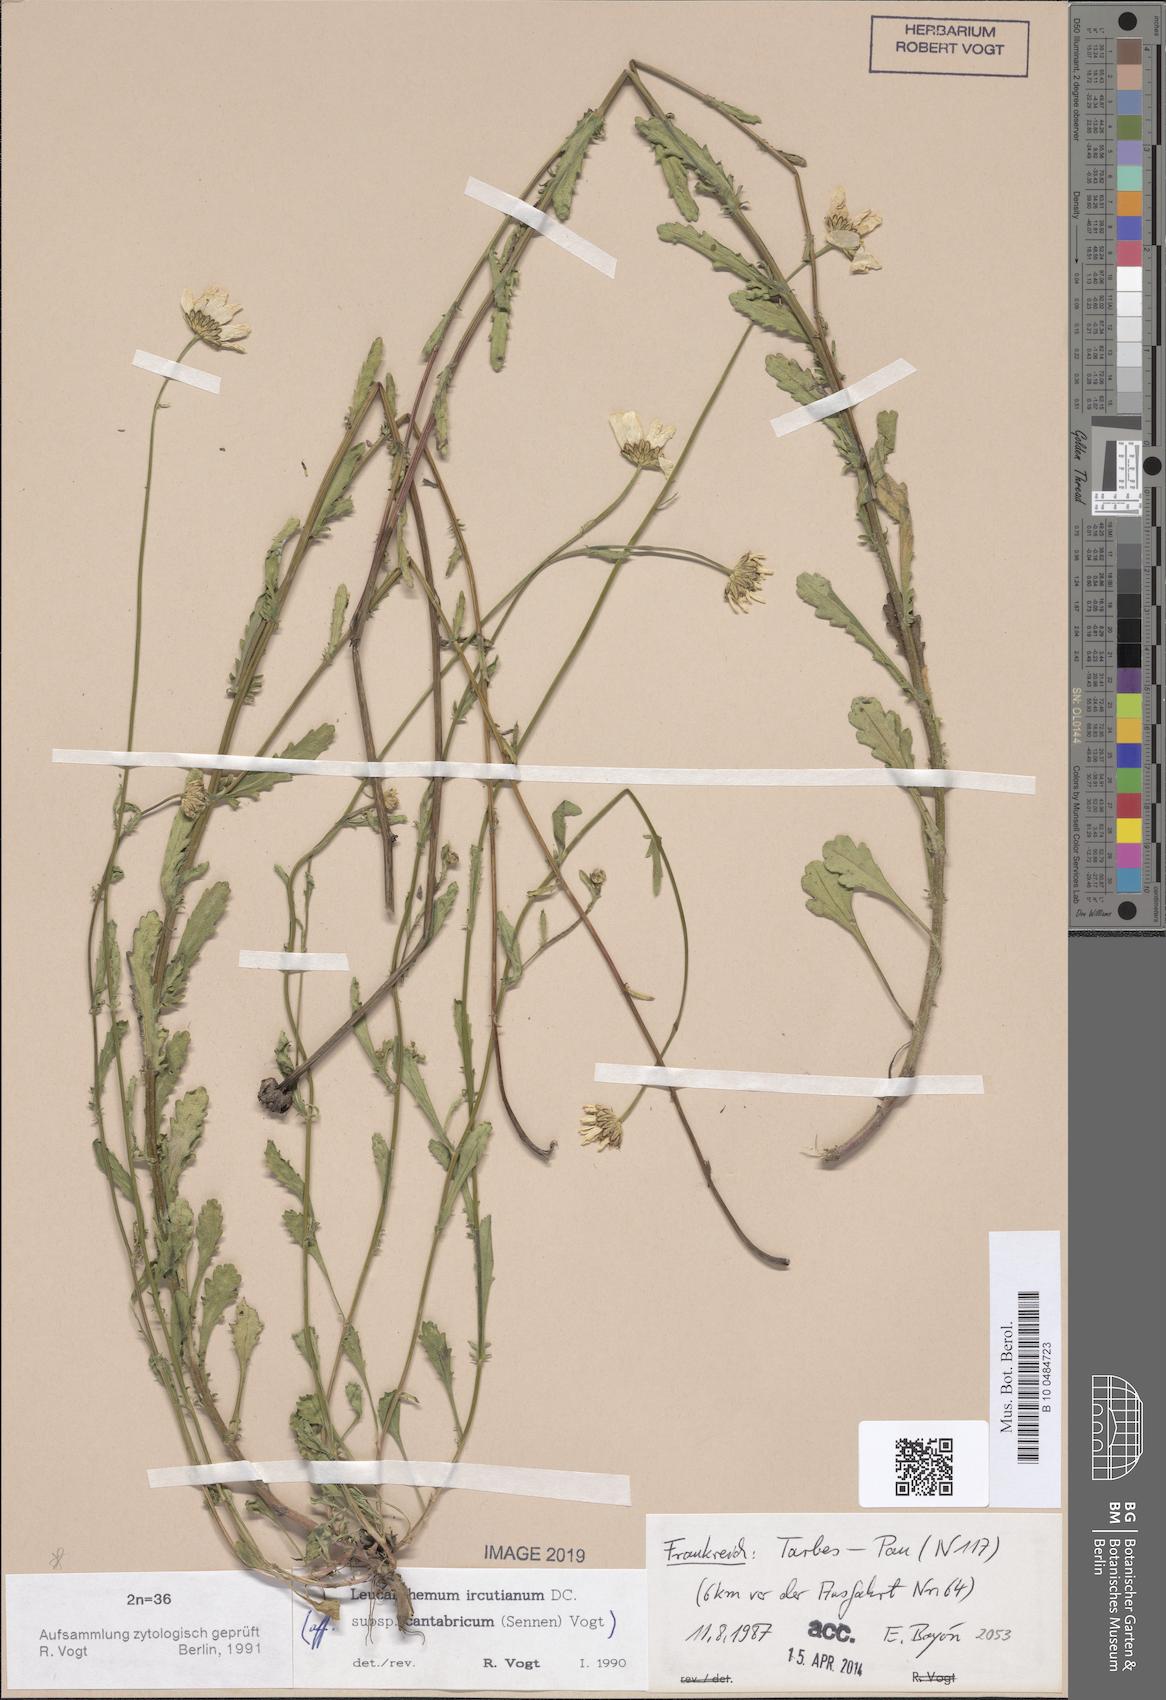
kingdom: Plantae
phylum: Tracheophyta
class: Magnoliopsida
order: Asterales
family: Asteraceae
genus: Leucanthemum
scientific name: Leucanthemum ircutianum
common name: Daisy
